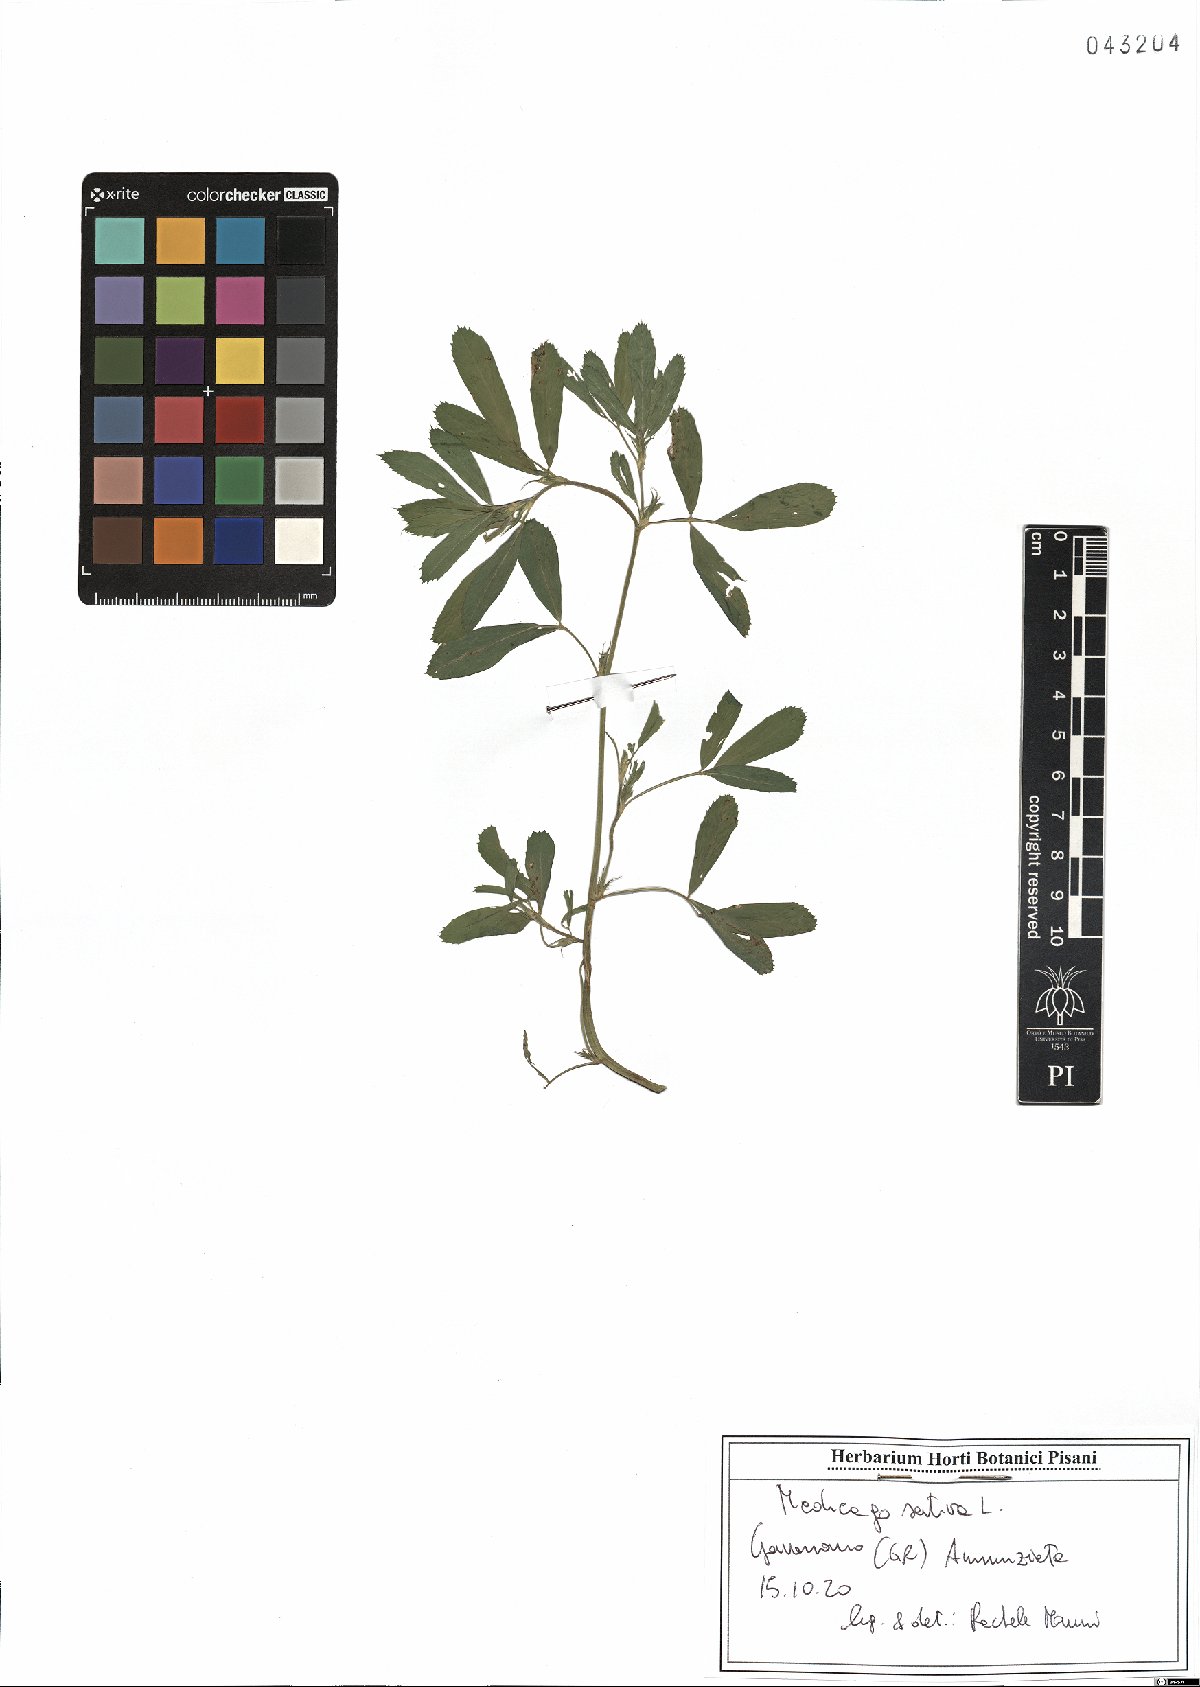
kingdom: Plantae
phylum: Tracheophyta
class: Magnoliopsida
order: Fabales
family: Fabaceae
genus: Medicago
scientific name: Medicago sativa
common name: Alfalfa
